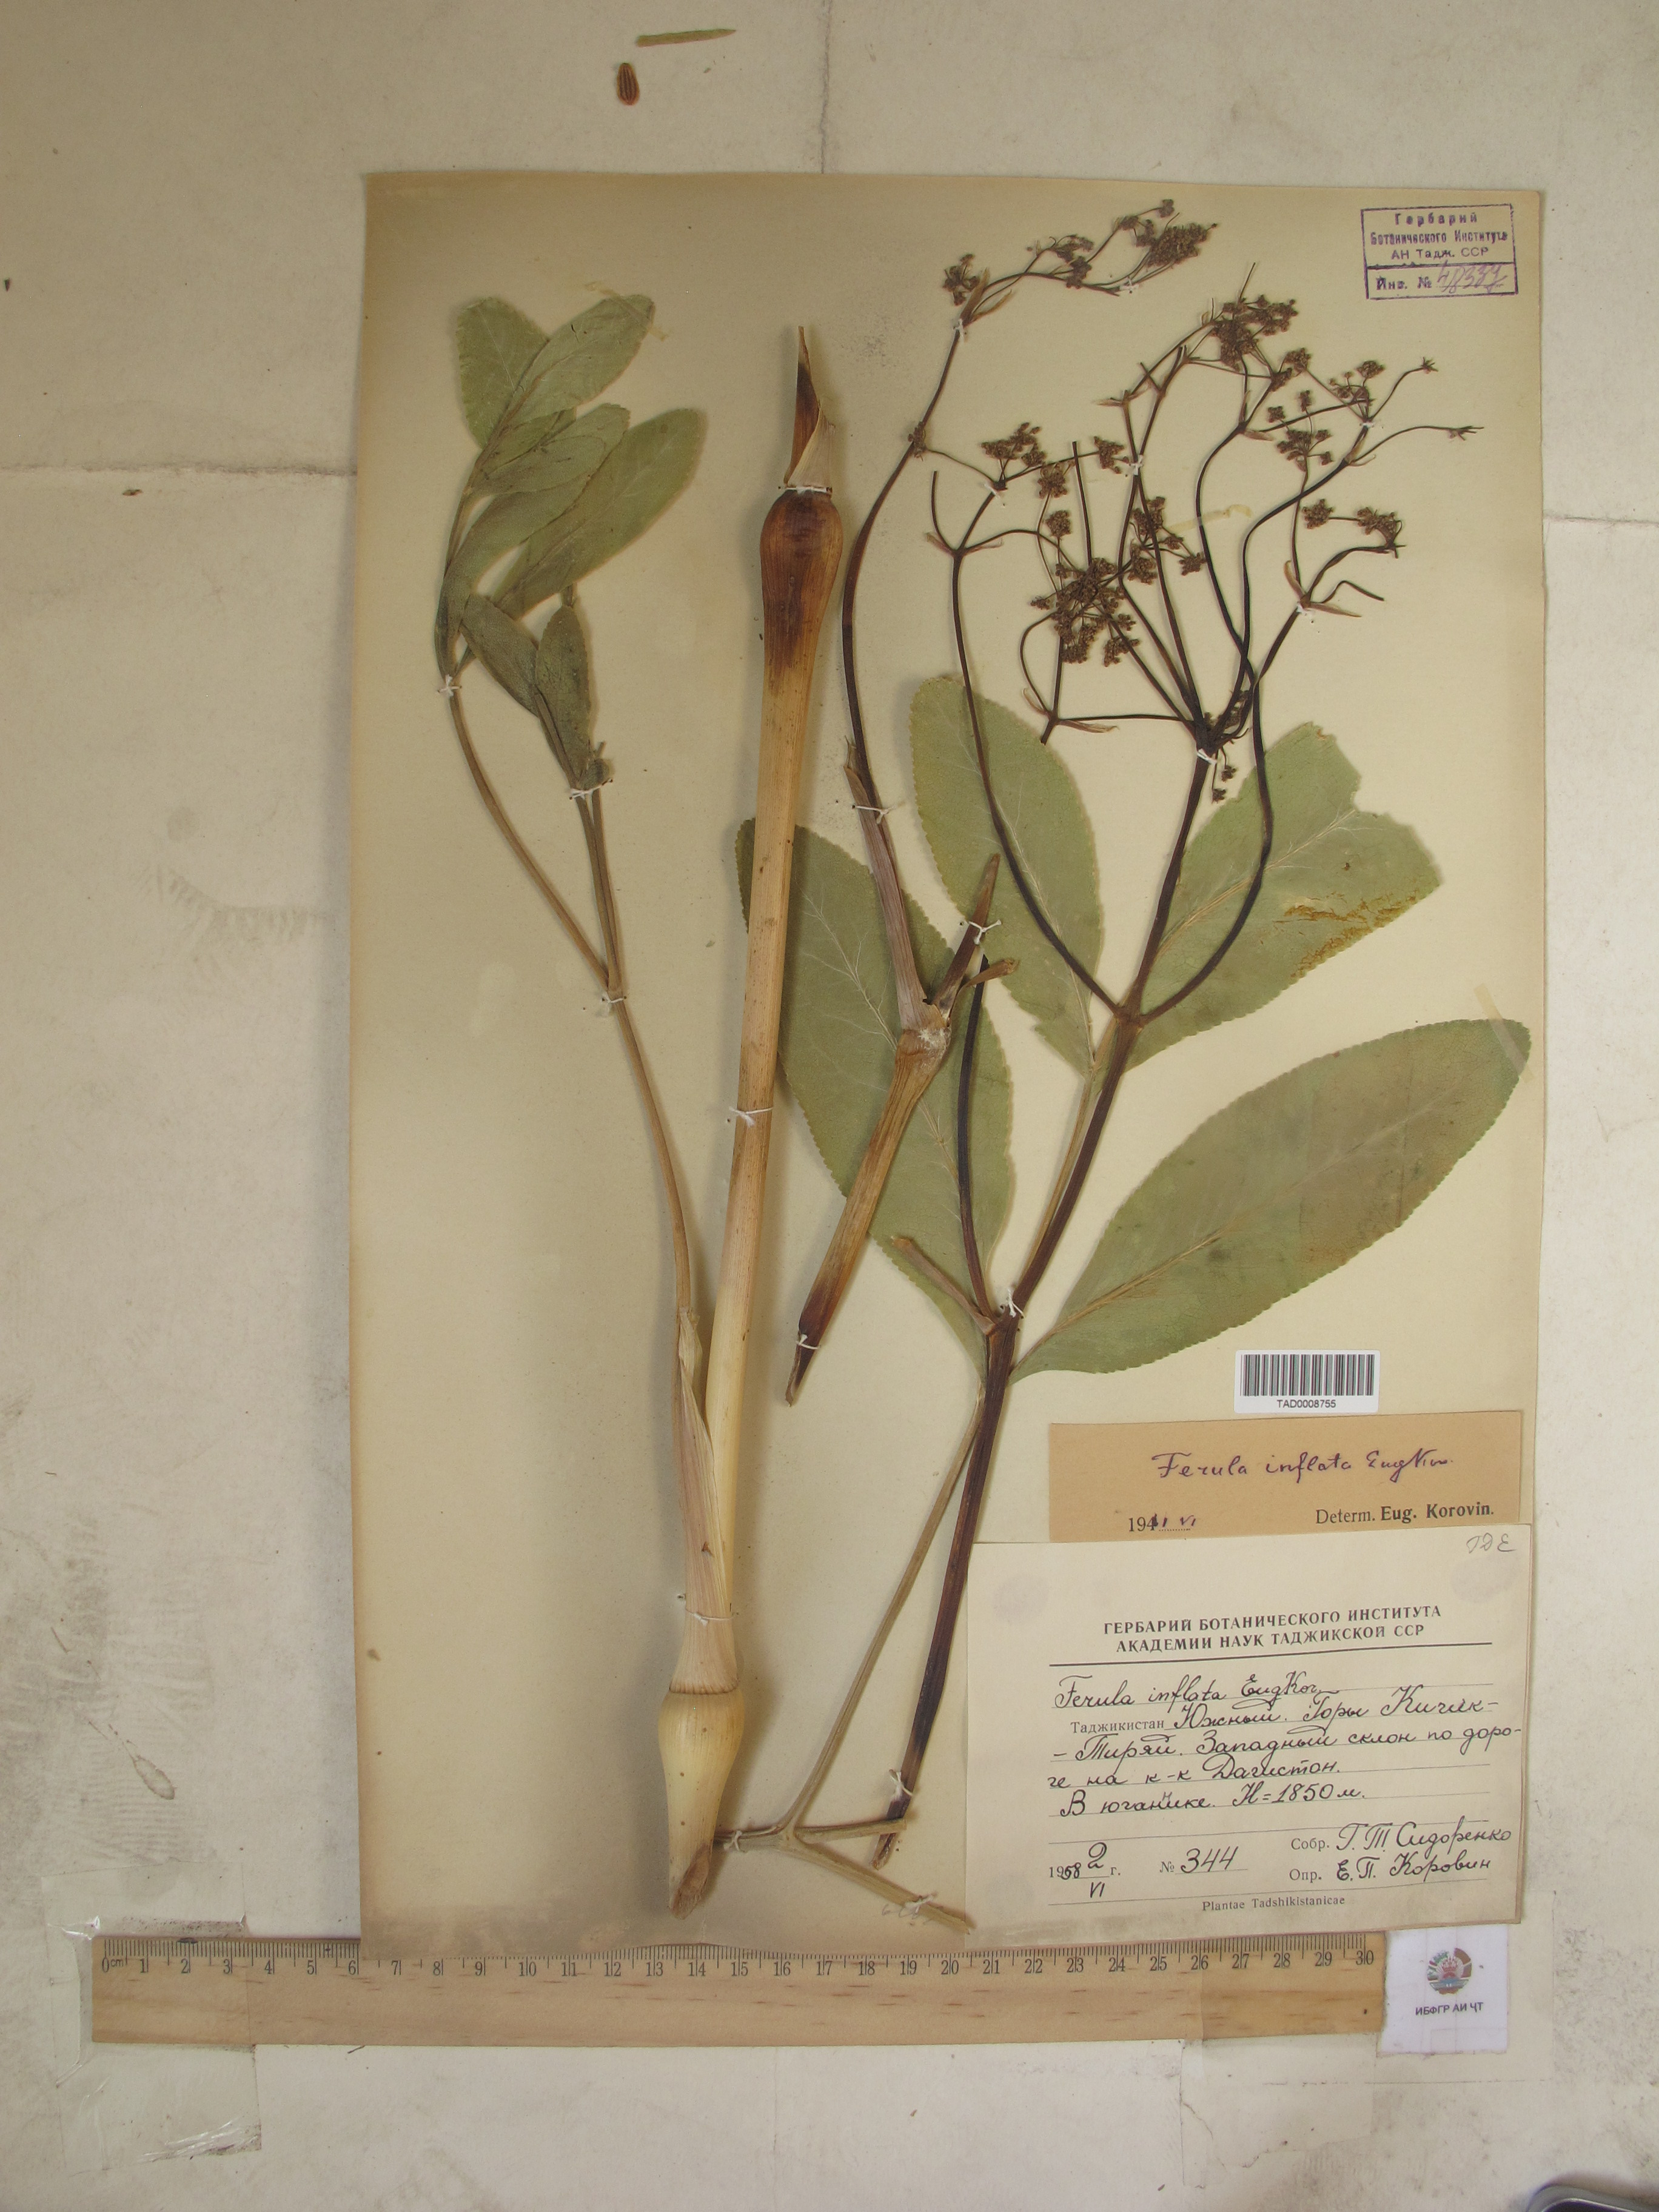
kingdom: Plantae
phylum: Tracheophyta
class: Magnoliopsida
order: Apiales
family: Apiaceae
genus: Ferula
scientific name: Ferula gigantea
